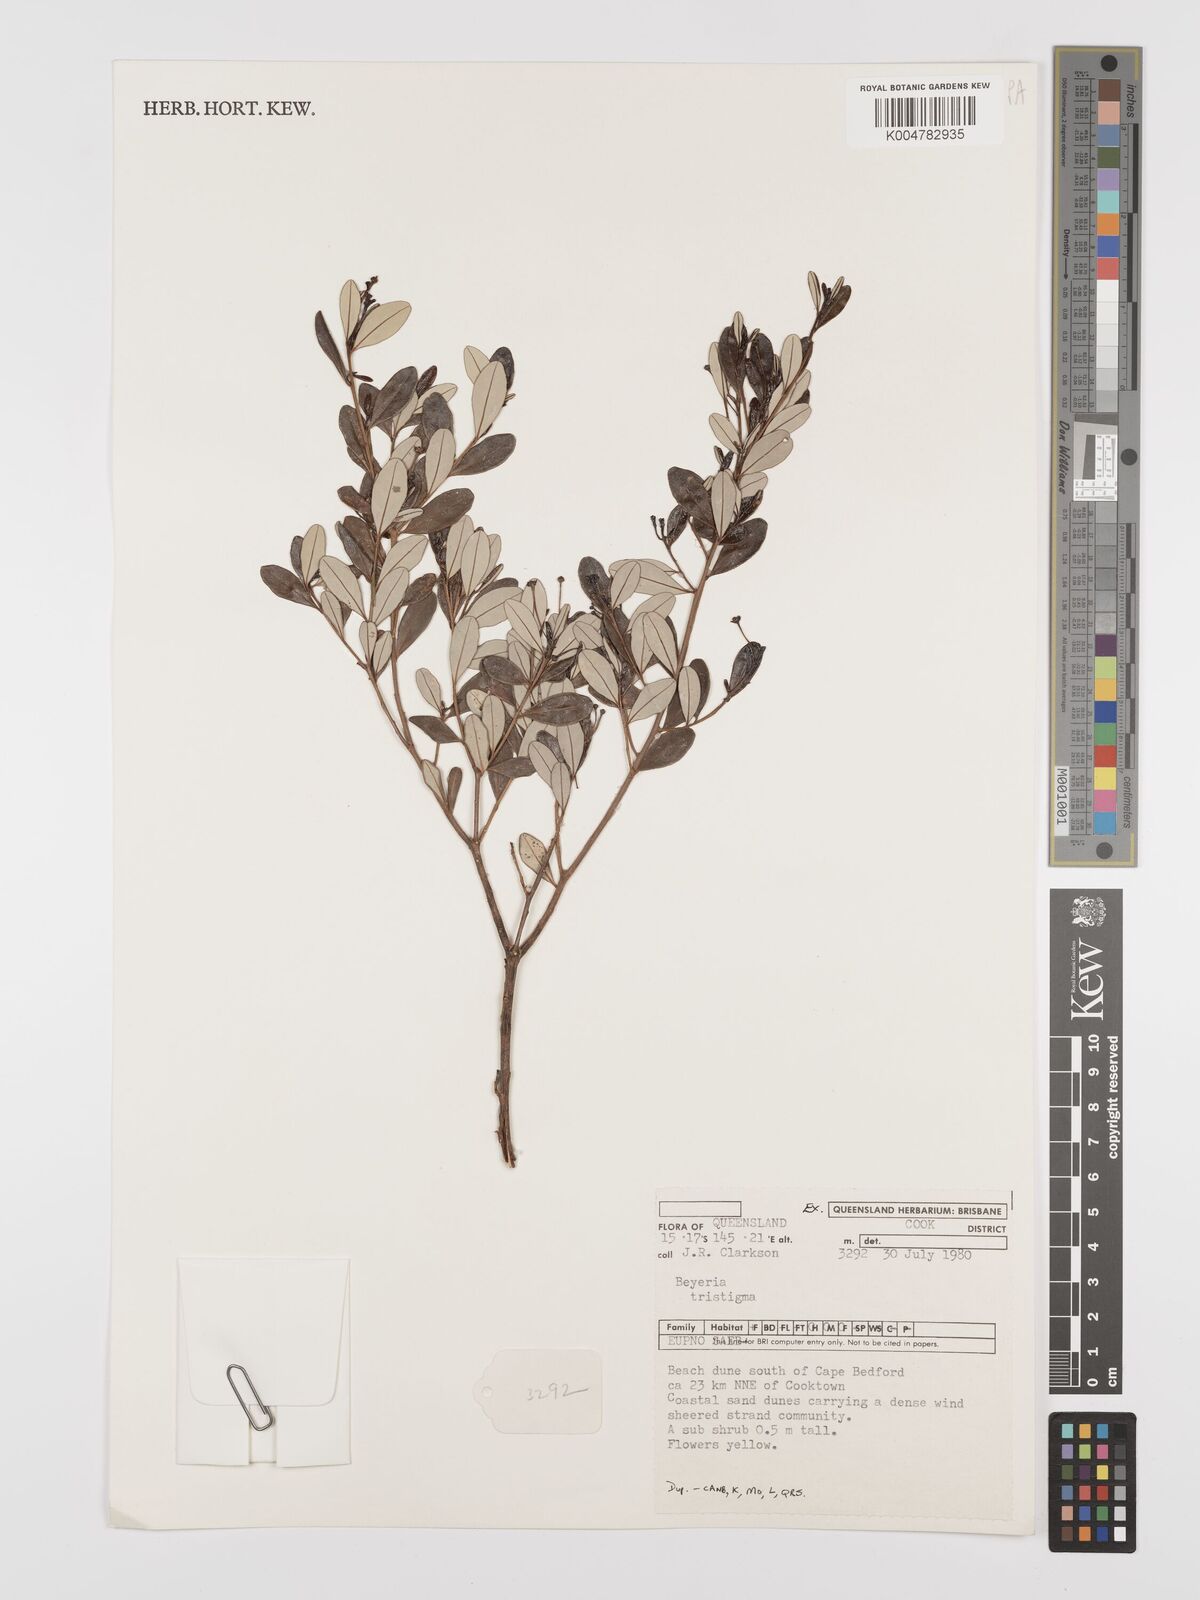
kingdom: Plantae
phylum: Tracheophyta
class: Magnoliopsida
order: Malpighiales
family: Euphorbiaceae
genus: Shonia
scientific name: Shonia tristigma
